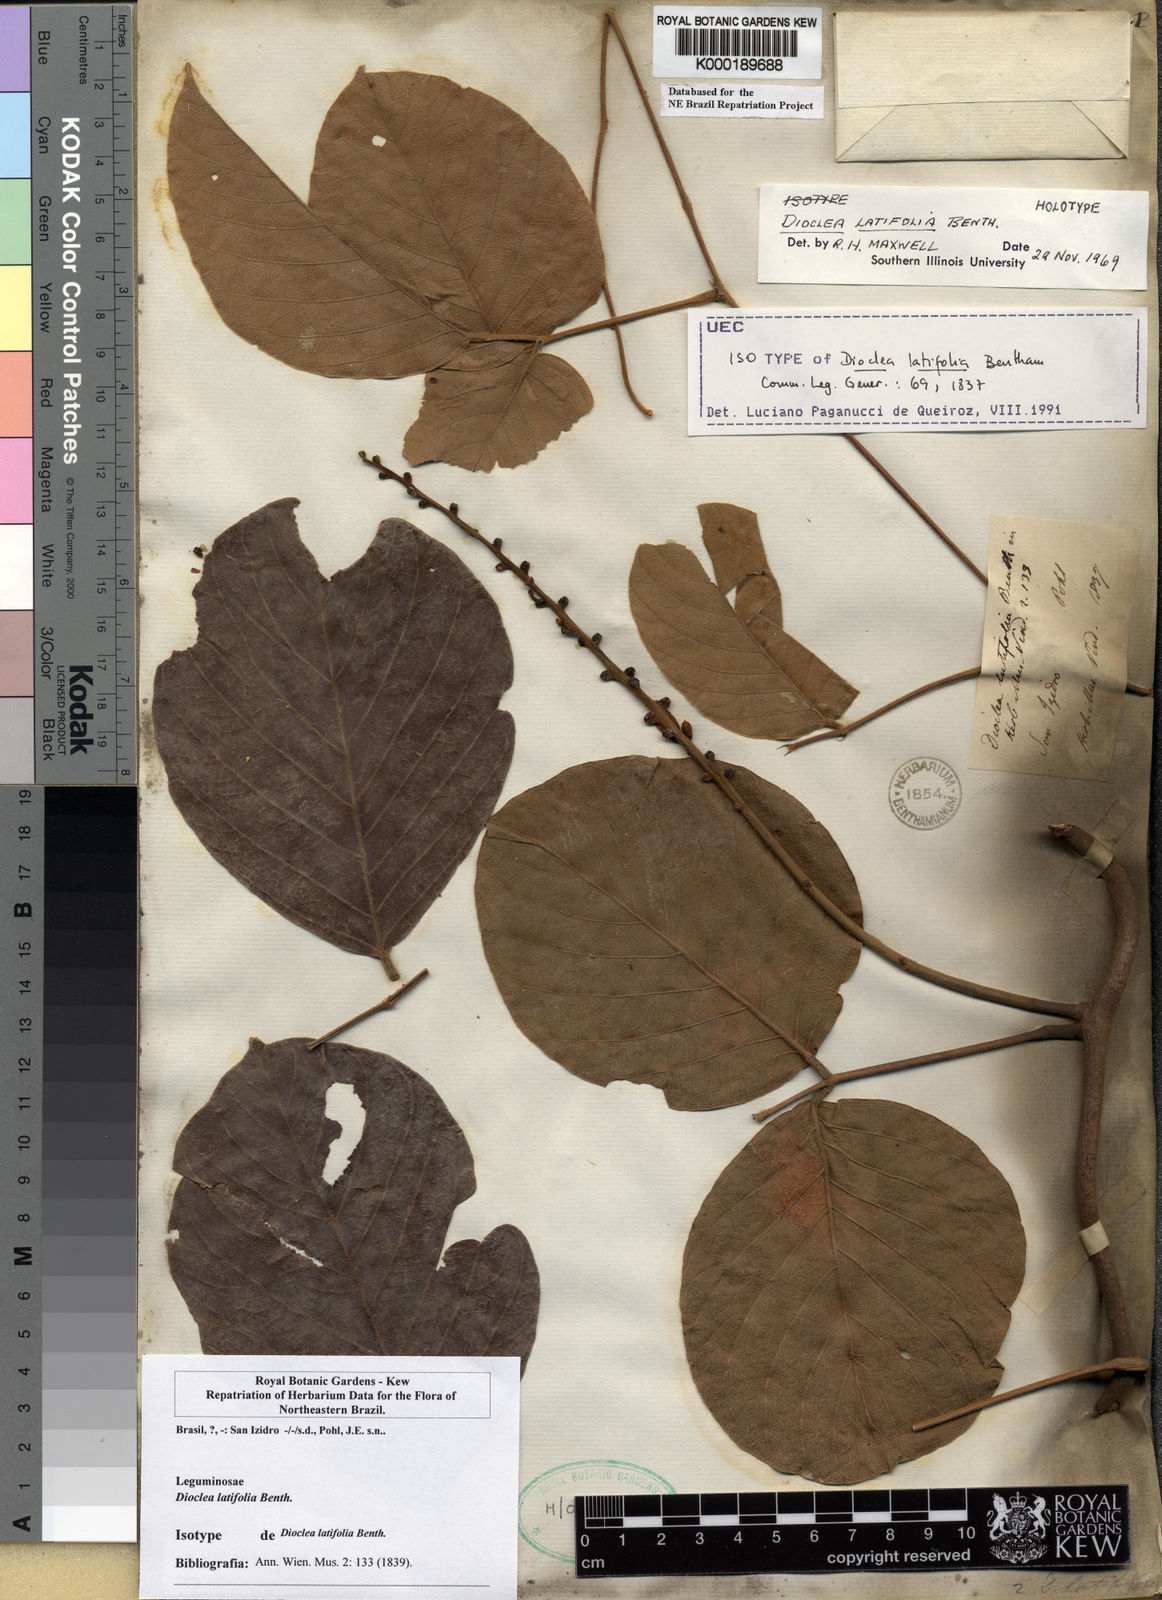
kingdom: Plantae
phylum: Tracheophyta
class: Magnoliopsida
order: Fabales
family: Fabaceae
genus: Macropsychanthus
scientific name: Macropsychanthus latifolius
